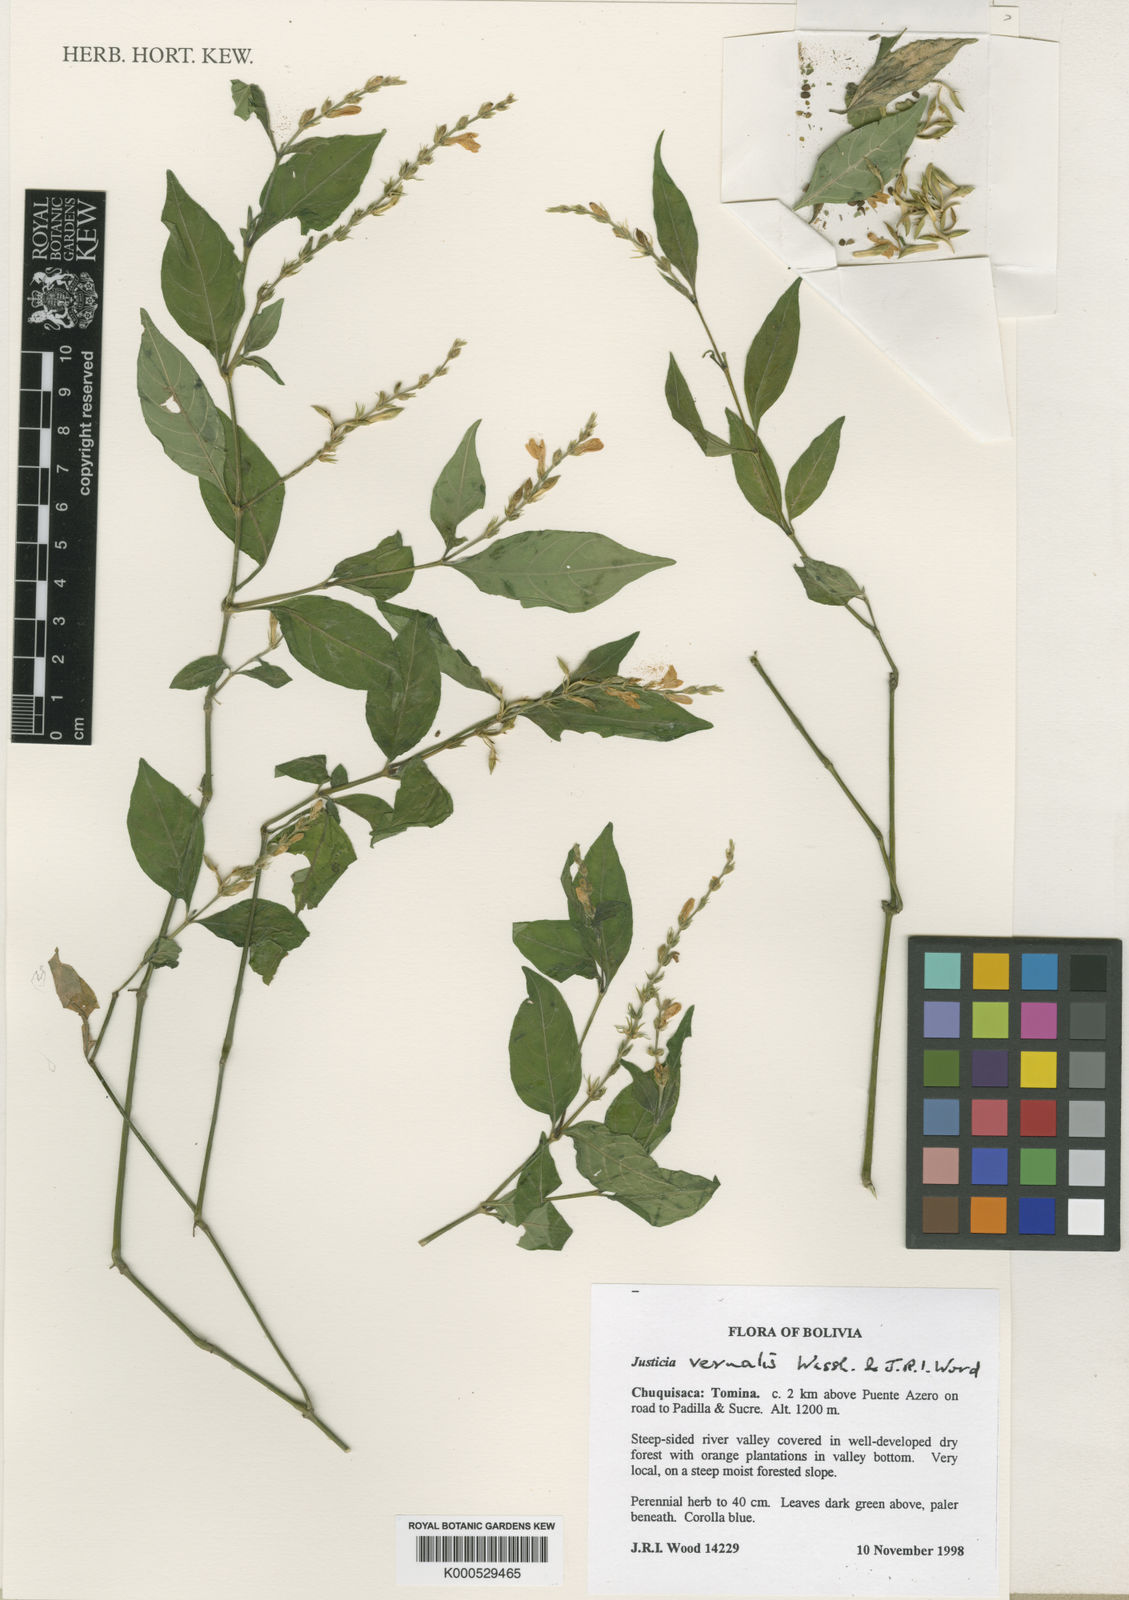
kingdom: Plantae
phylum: Tracheophyta
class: Magnoliopsida
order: Lamiales
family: Acanthaceae
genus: Justicia
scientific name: Justicia vernalis
